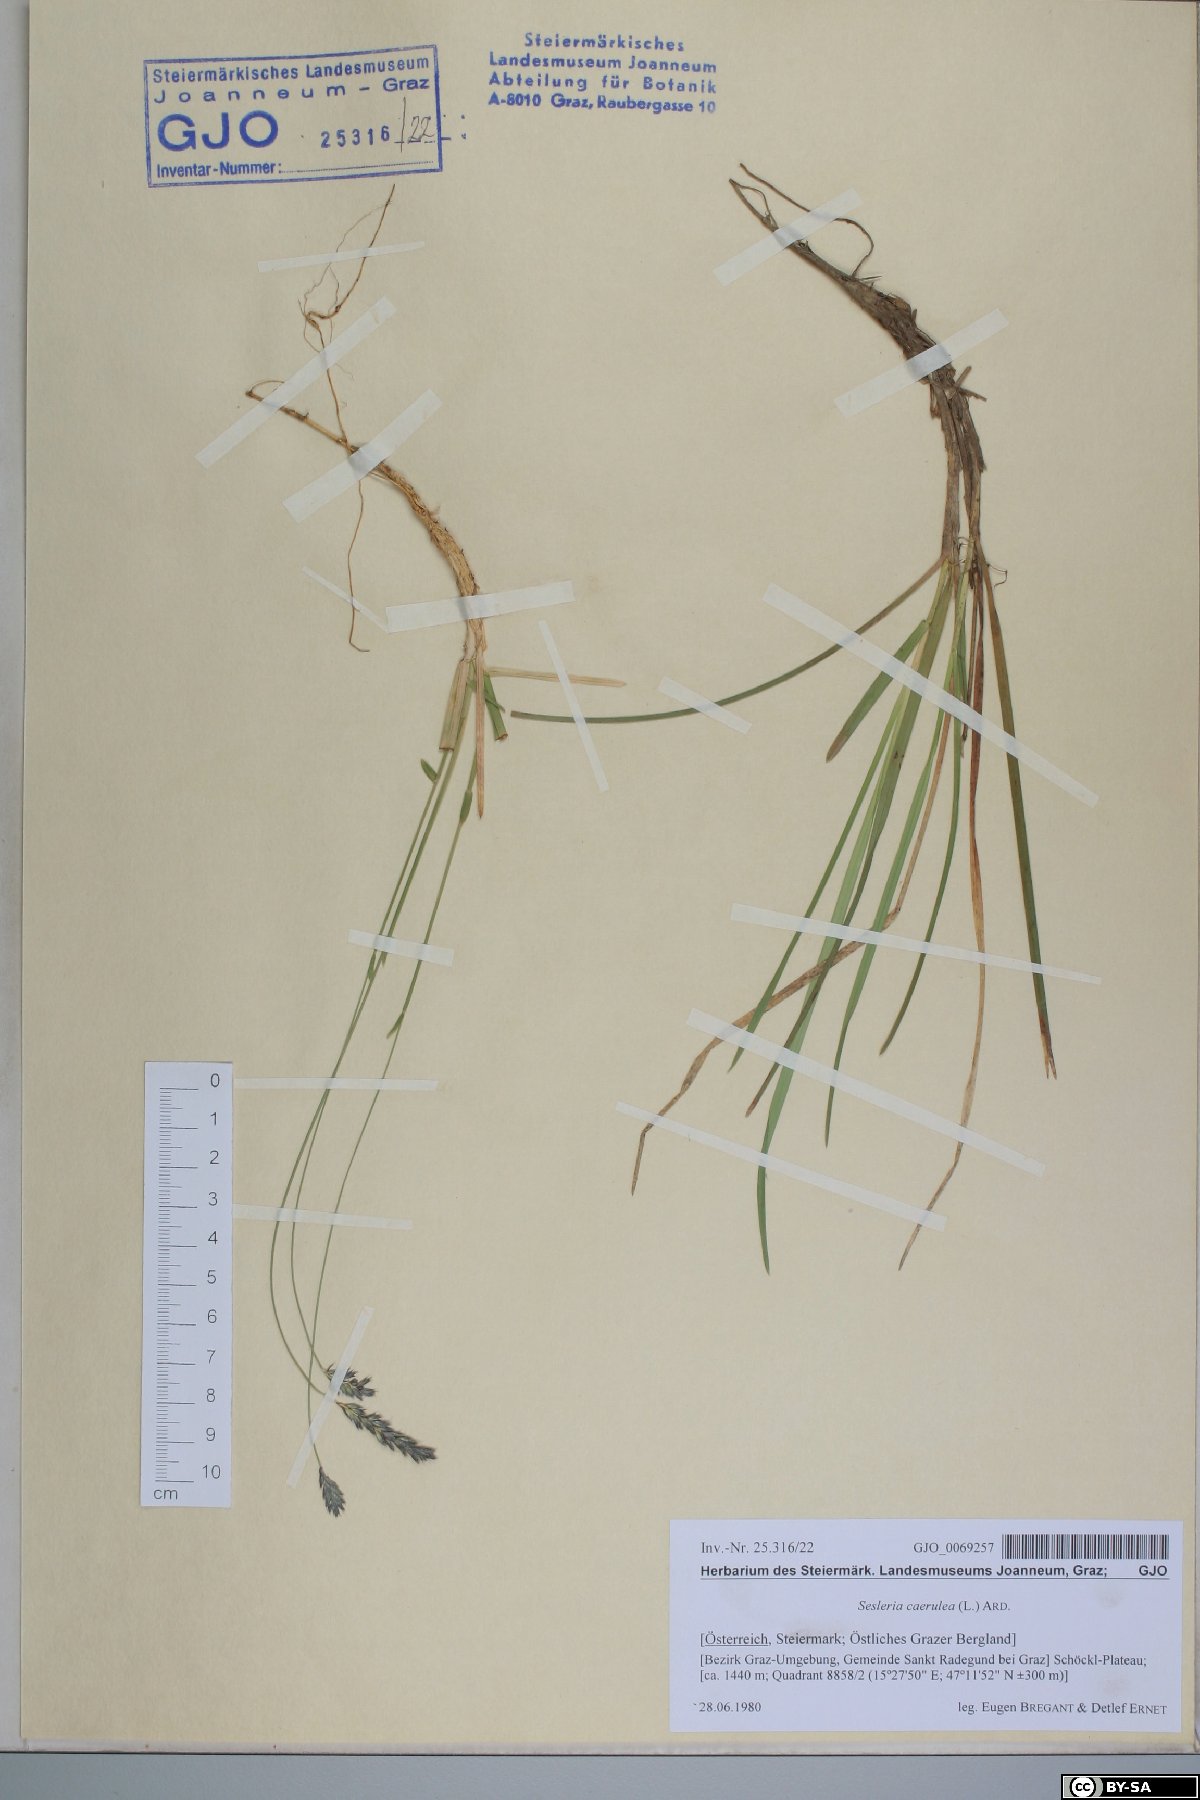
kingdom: Plantae
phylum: Tracheophyta
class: Liliopsida
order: Poales
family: Poaceae
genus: Sesleria
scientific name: Sesleria caerulea
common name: Blue moor-grass
